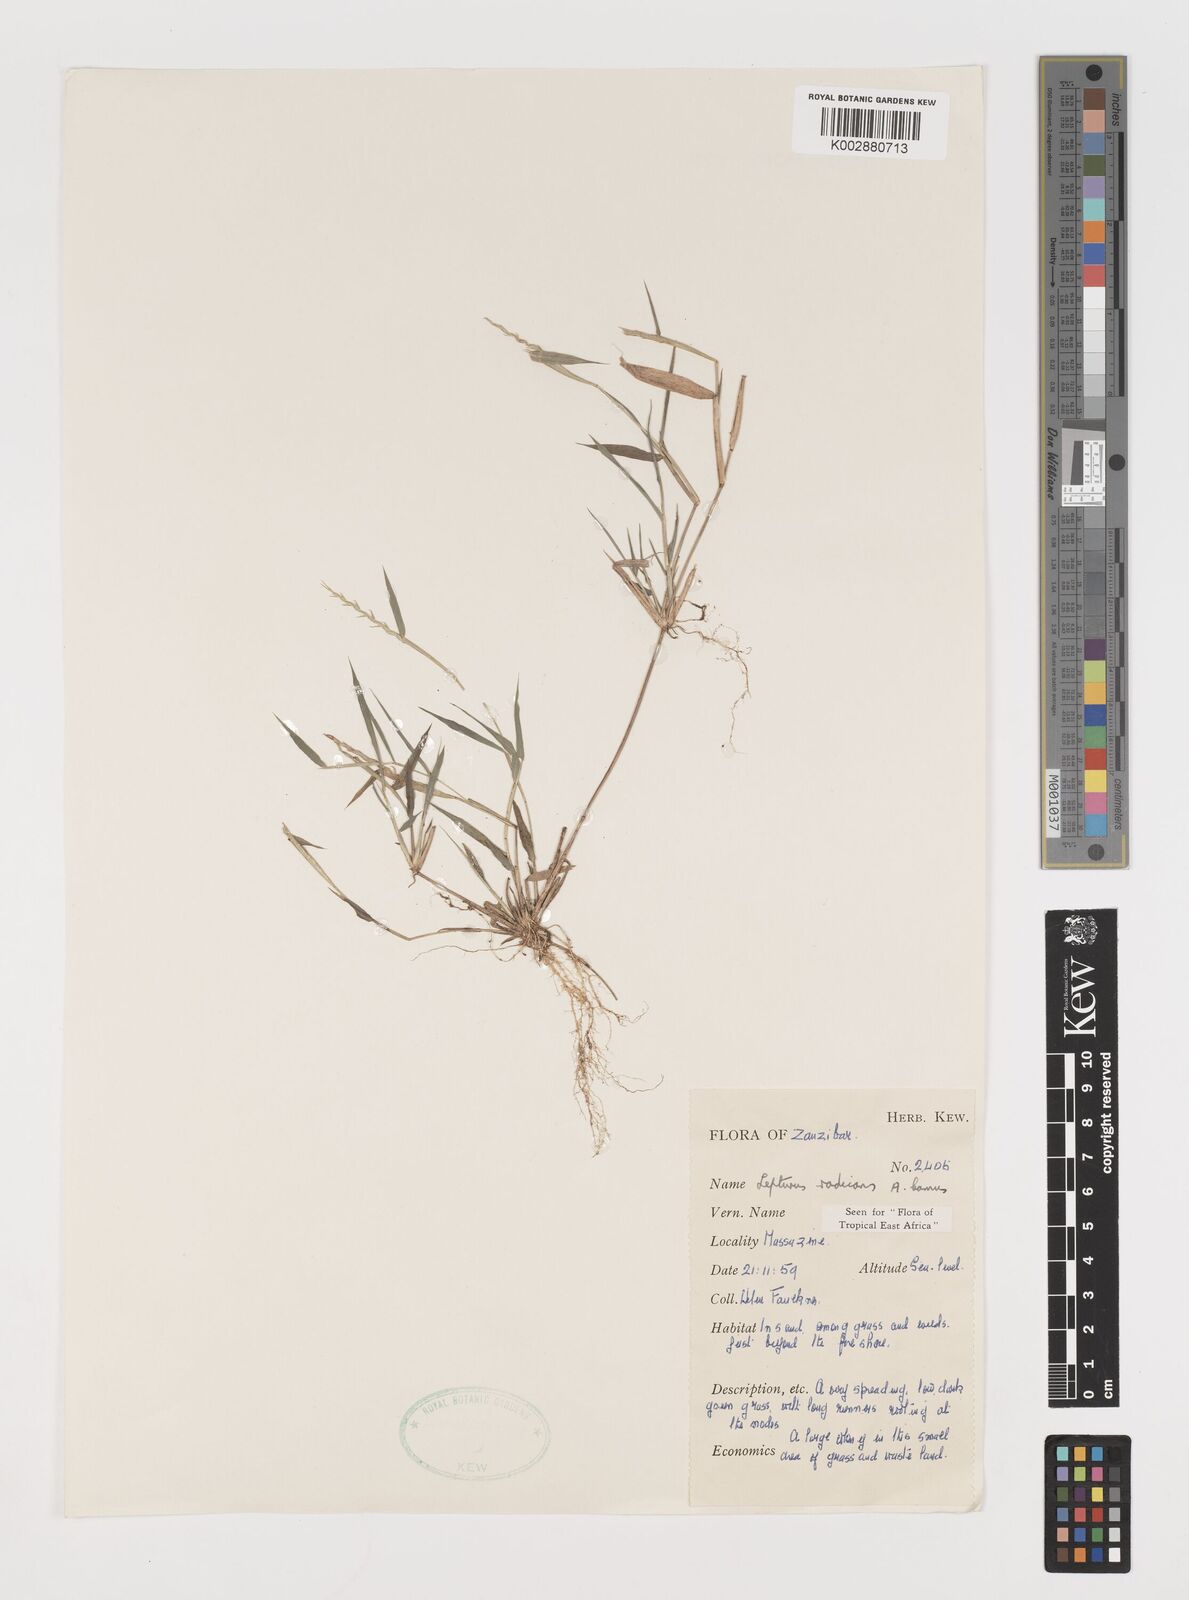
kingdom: Plantae
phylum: Tracheophyta
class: Liliopsida
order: Poales
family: Poaceae
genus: Lepturus
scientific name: Lepturus radicans
